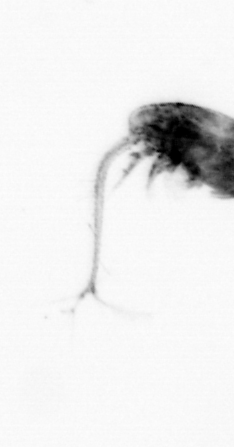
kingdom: Animalia
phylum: Arthropoda
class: Copepoda
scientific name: Copepoda
